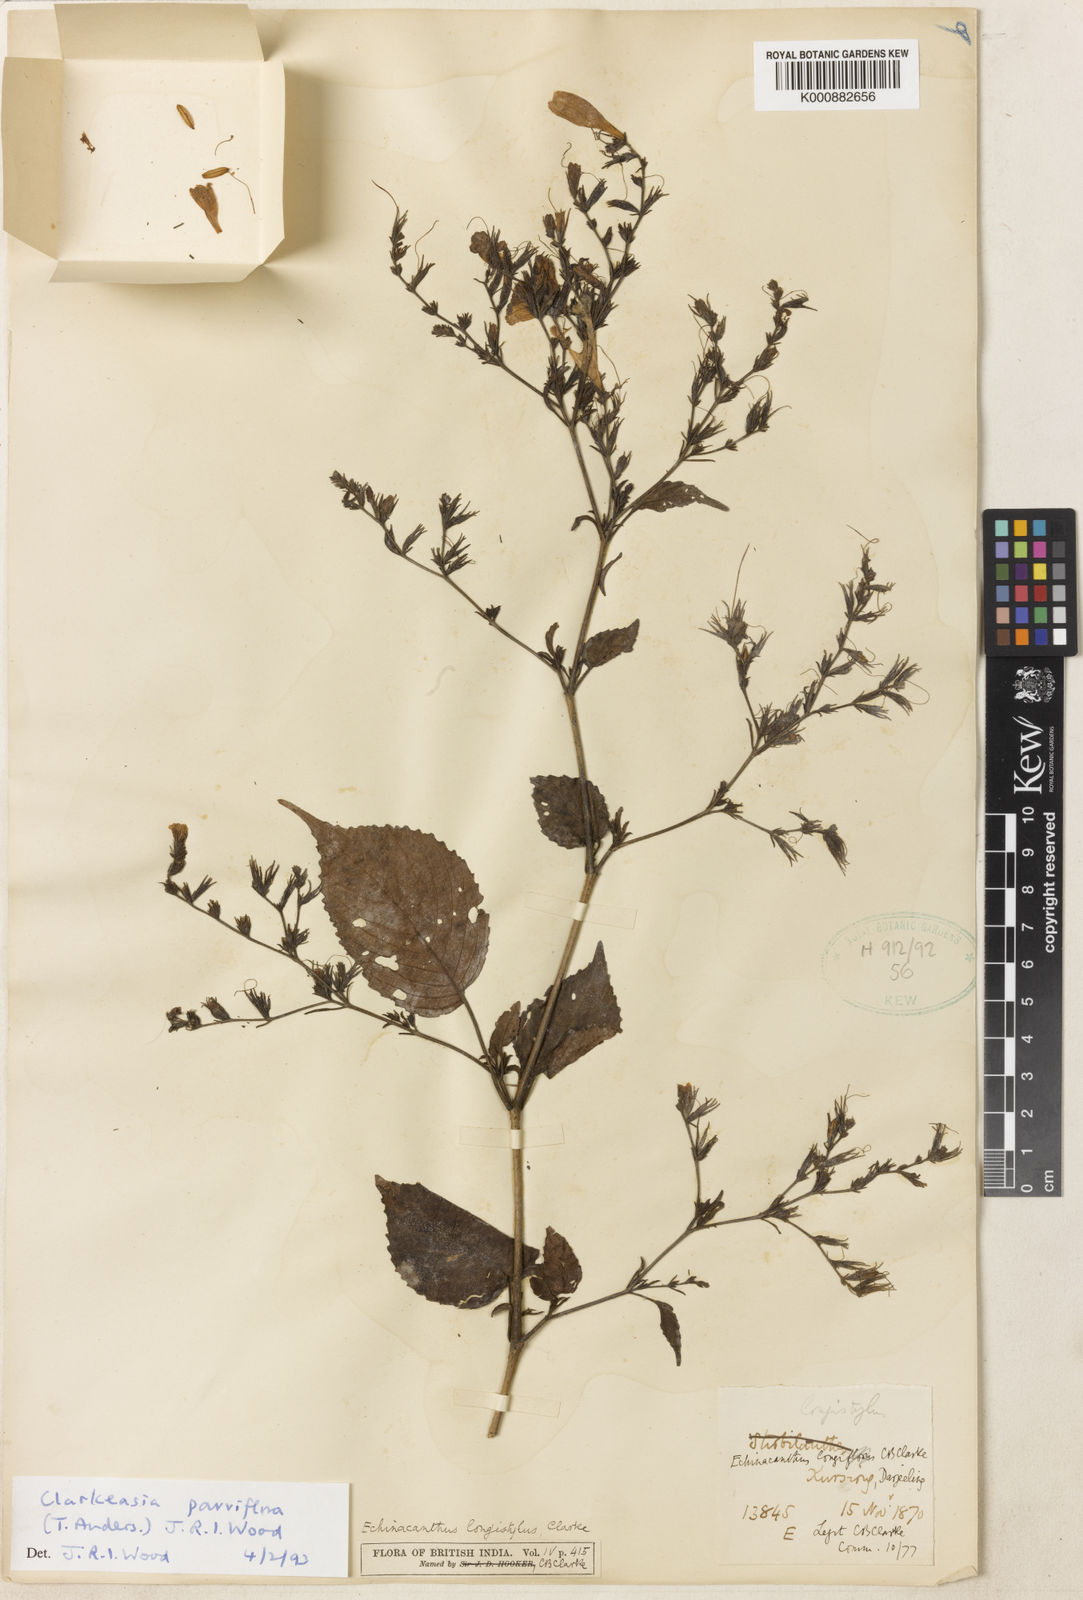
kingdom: Plantae
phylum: Tracheophyta
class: Magnoliopsida
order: Lamiales
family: Acanthaceae
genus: Strobilanthes
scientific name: Strobilanthes violifolia
